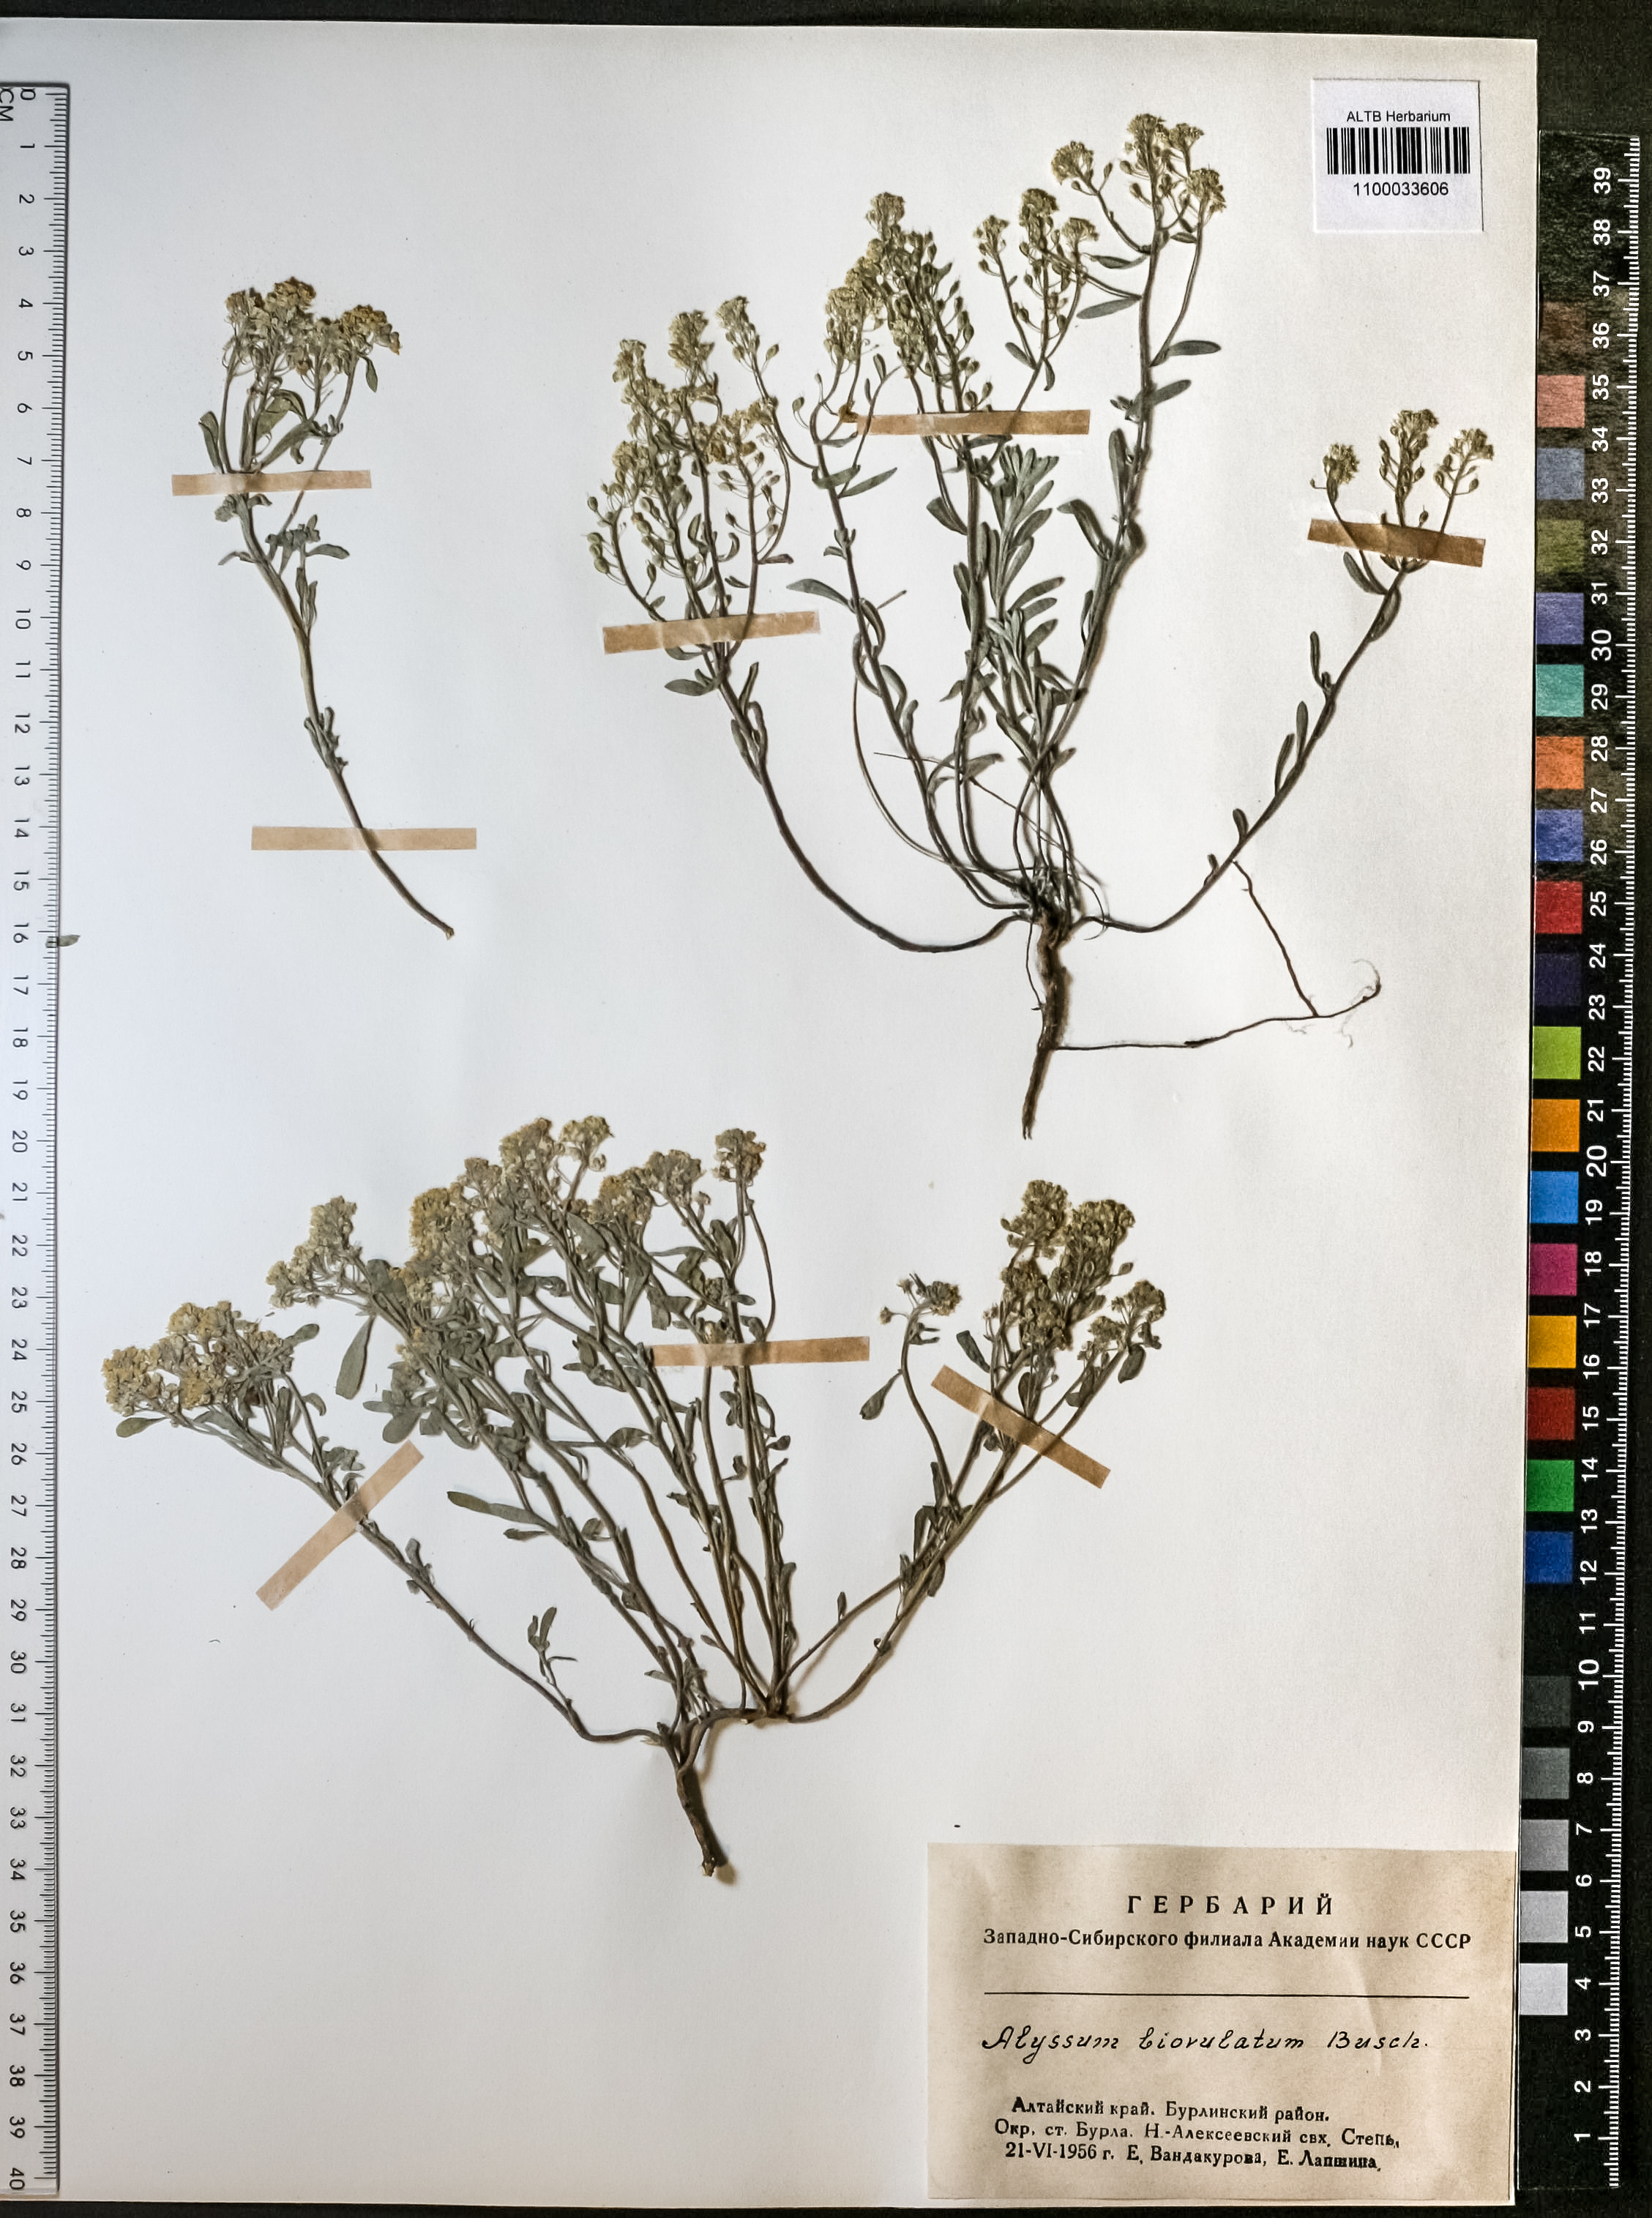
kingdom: Plantae
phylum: Tracheophyta
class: Magnoliopsida
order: Brassicales
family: Brassicaceae
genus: Odontarrhena
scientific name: Odontarrhena obovata
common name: American alyssum
